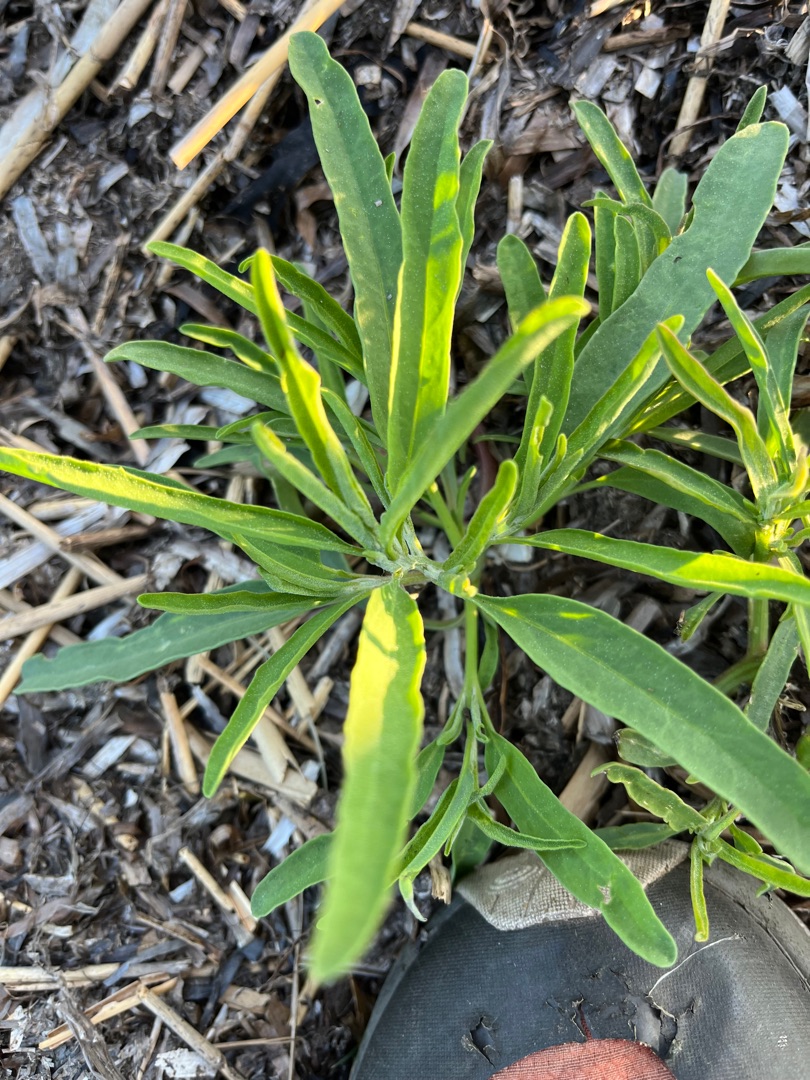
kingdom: Plantae
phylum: Tracheophyta
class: Magnoliopsida
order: Caryophyllales
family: Amaranthaceae
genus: Atriplex
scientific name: Atriplex littoralis
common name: Strand-mælde
